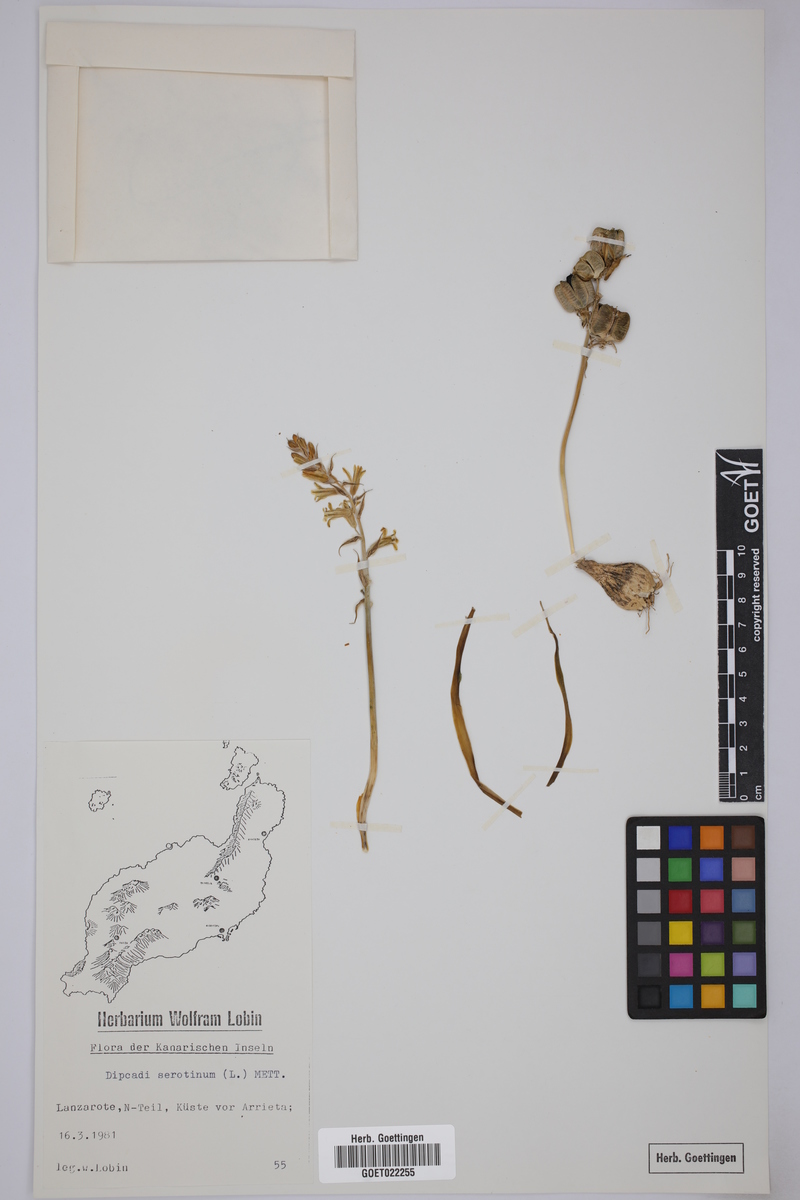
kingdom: Plantae
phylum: Tracheophyta
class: Liliopsida
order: Asparagales
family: Asparagaceae
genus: Dipcadi
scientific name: Dipcadi serotinum
